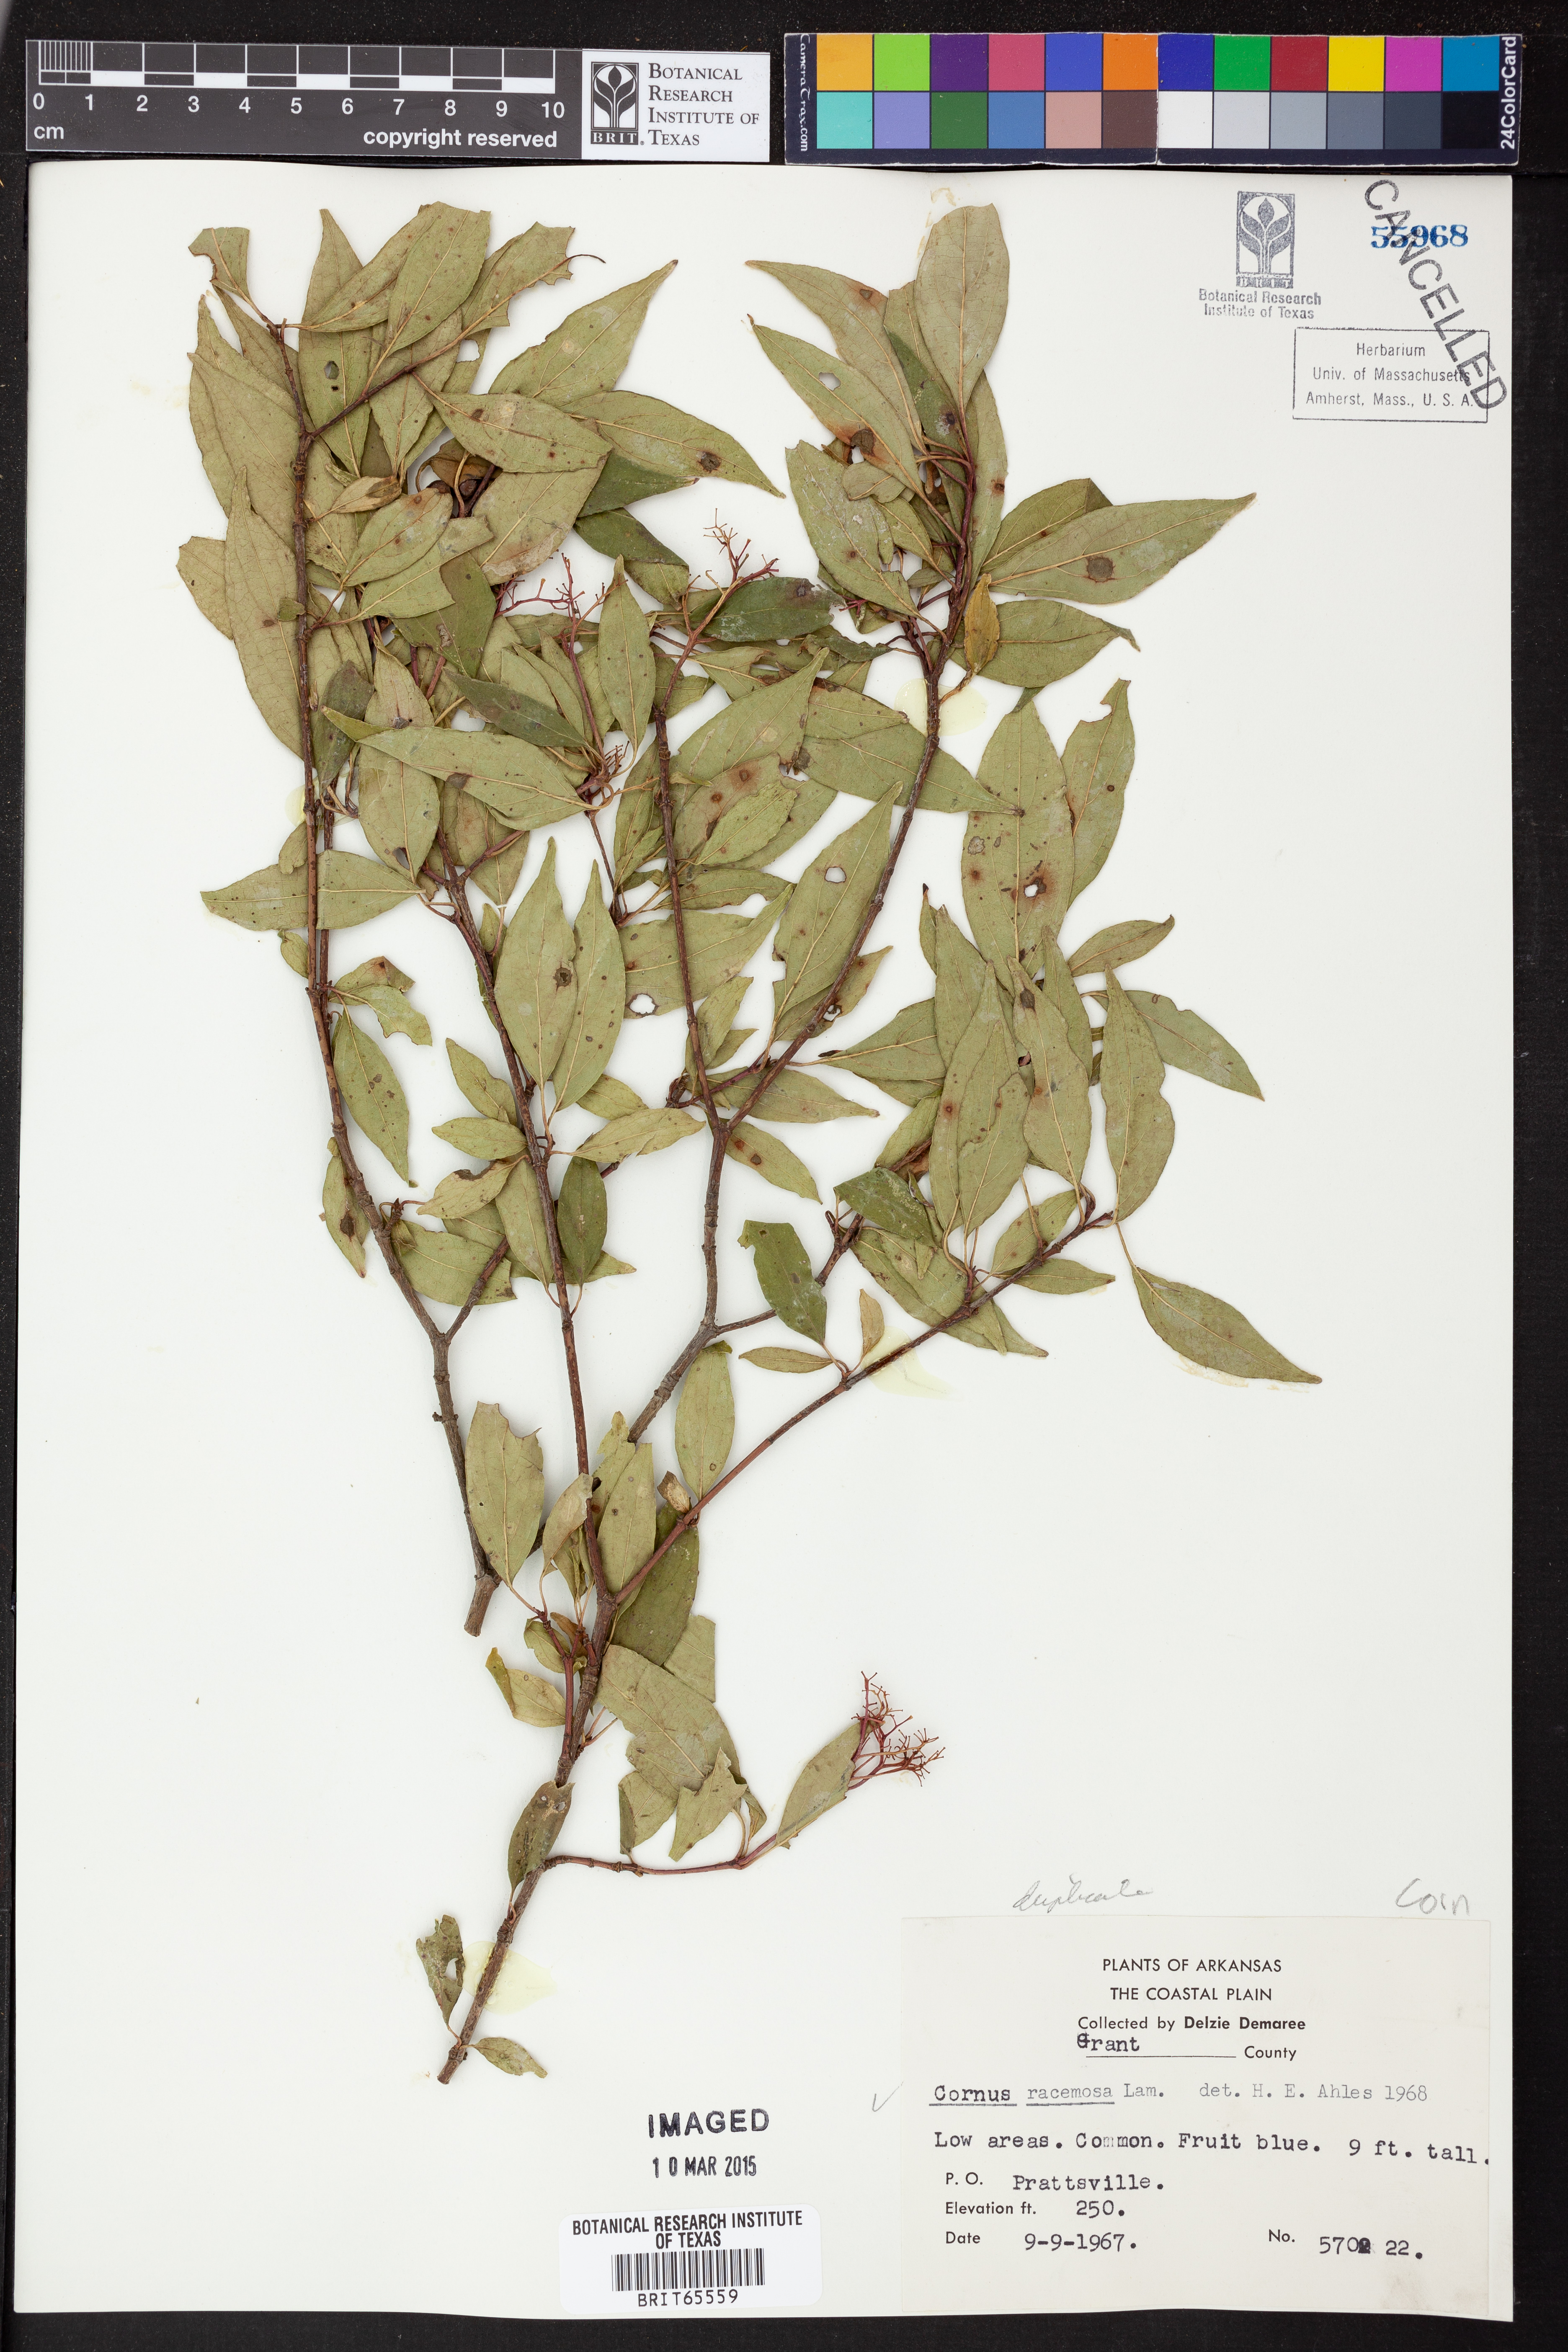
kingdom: Plantae
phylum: Tracheophyta
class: Magnoliopsida
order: Cornales
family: Cornaceae
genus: Cornus
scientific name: Cornus racemosa
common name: Panicled dogwood
